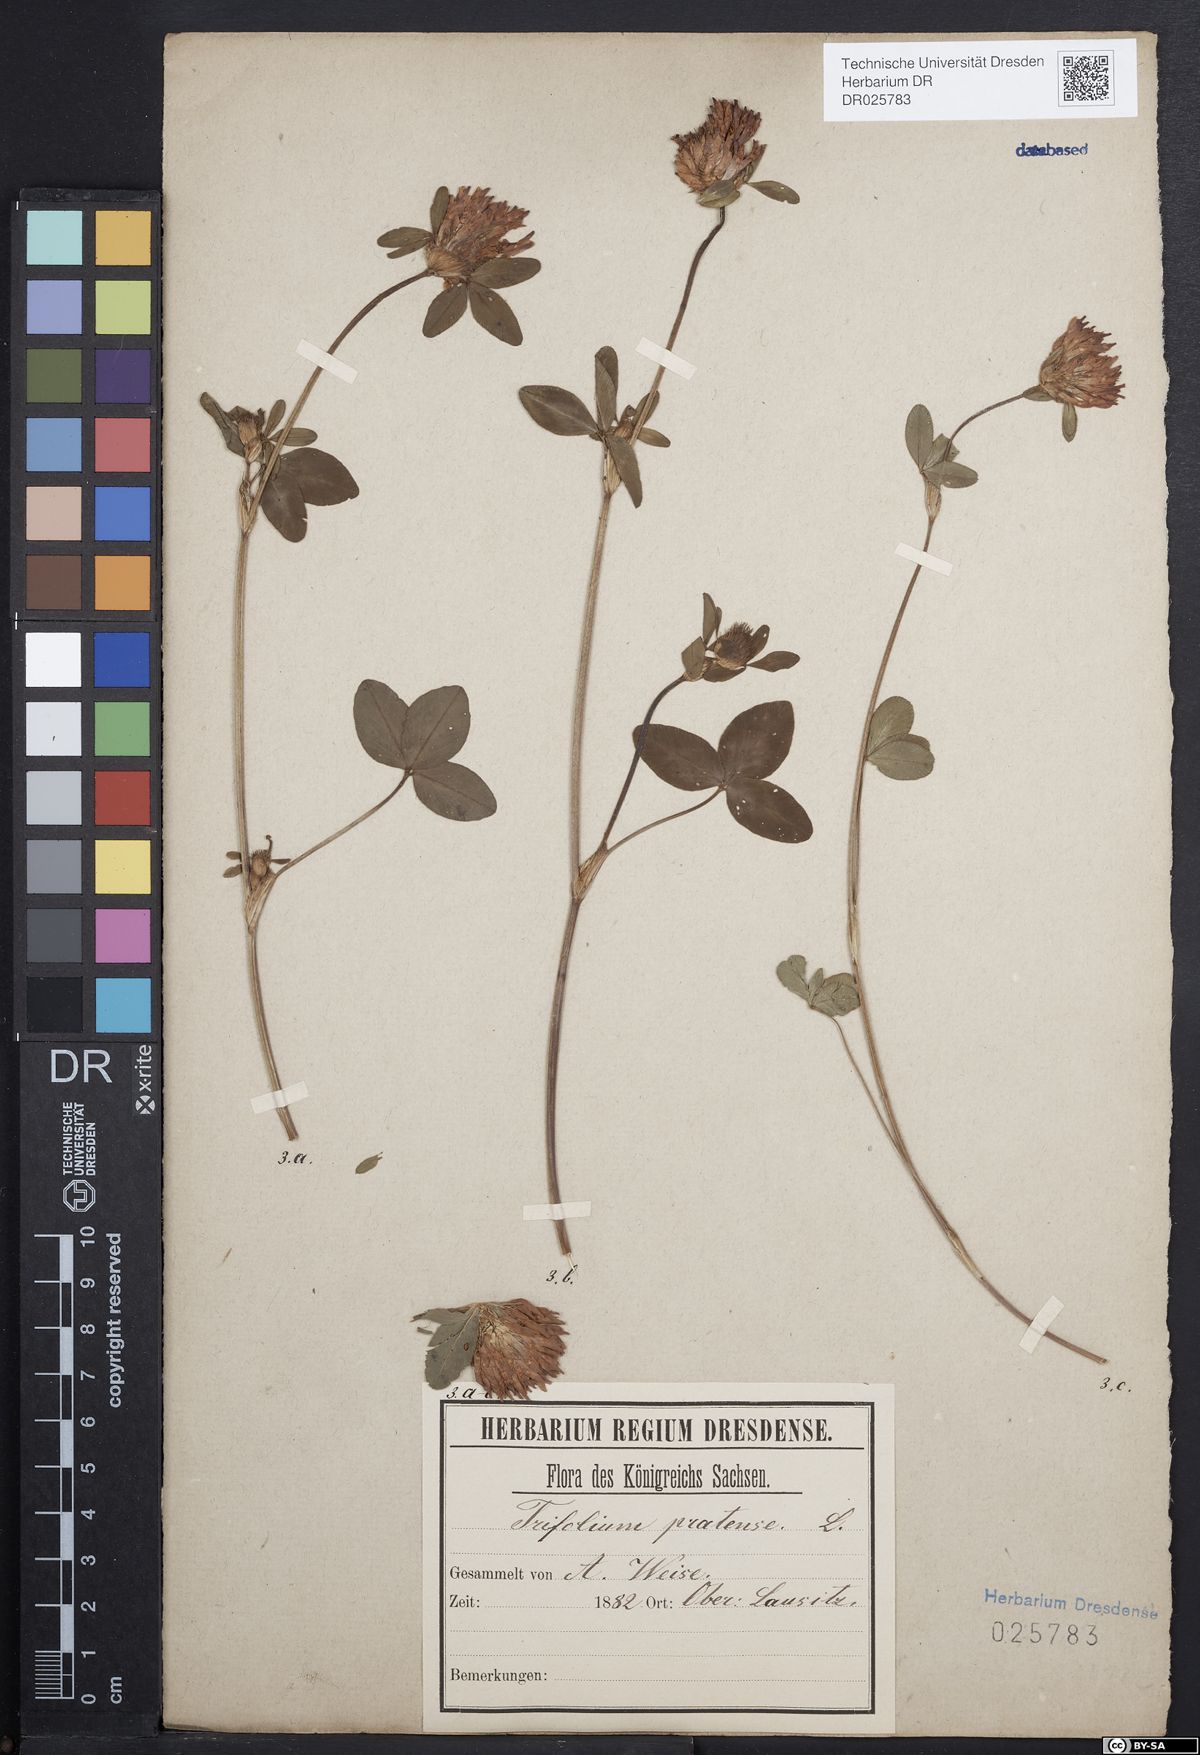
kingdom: Plantae
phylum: Tracheophyta
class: Magnoliopsida
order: Fabales
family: Fabaceae
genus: Trifolium
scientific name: Trifolium pratense
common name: Red clover
